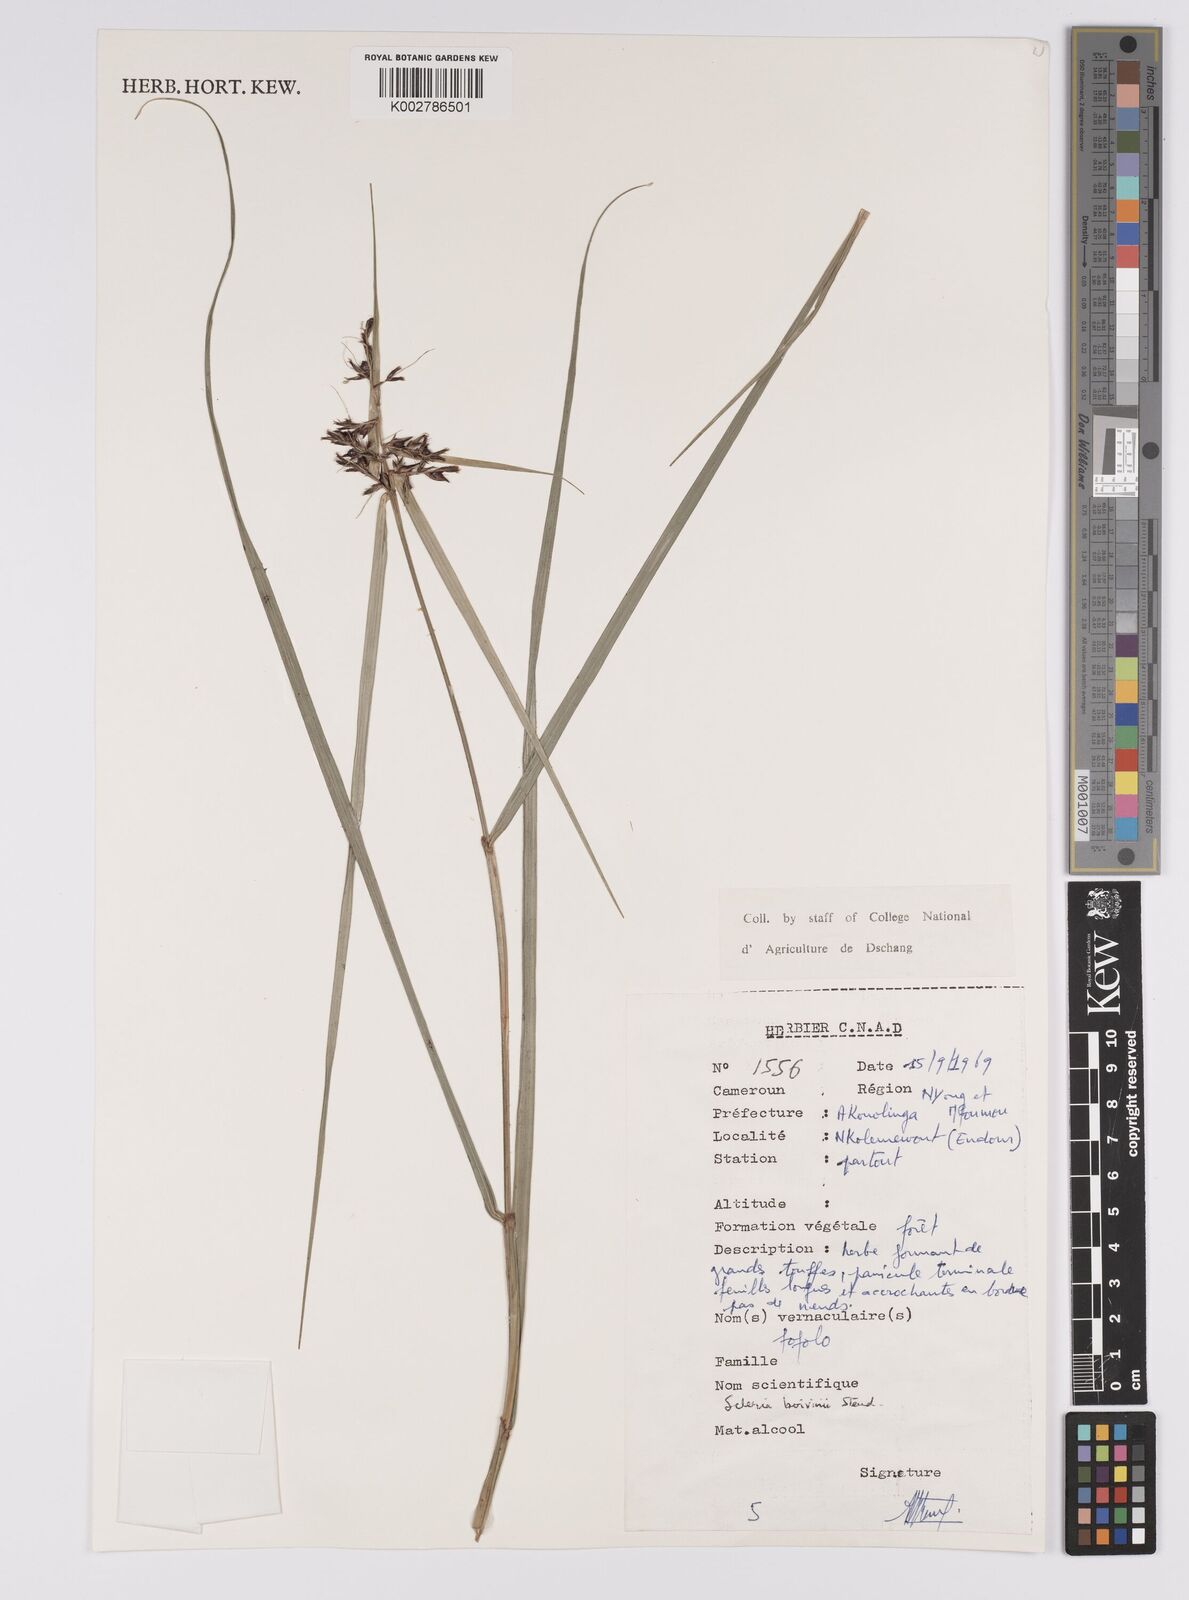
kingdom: Plantae
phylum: Tracheophyta
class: Liliopsida
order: Poales
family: Cyperaceae
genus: Scleria
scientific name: Scleria boivinii
